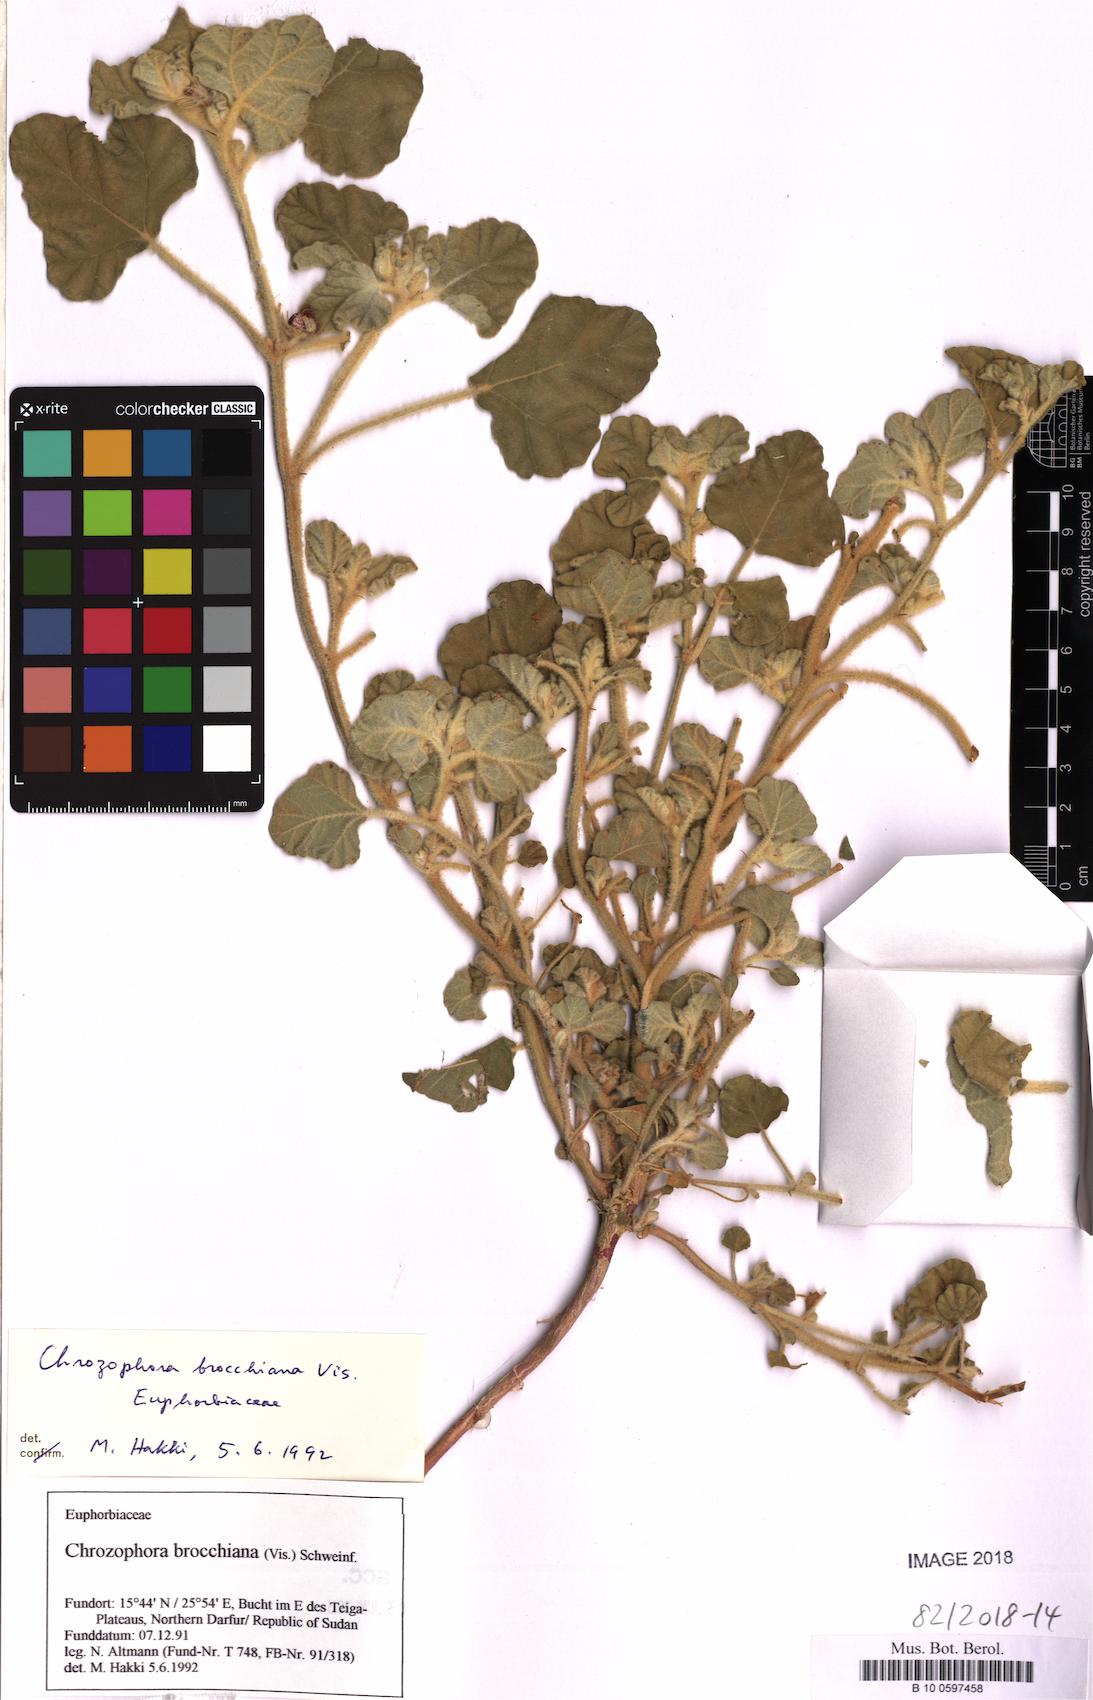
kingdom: Plantae
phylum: Tracheophyta
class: Magnoliopsida
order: Malpighiales
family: Euphorbiaceae
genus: Chrozophora
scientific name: Chrozophora brocchiana
